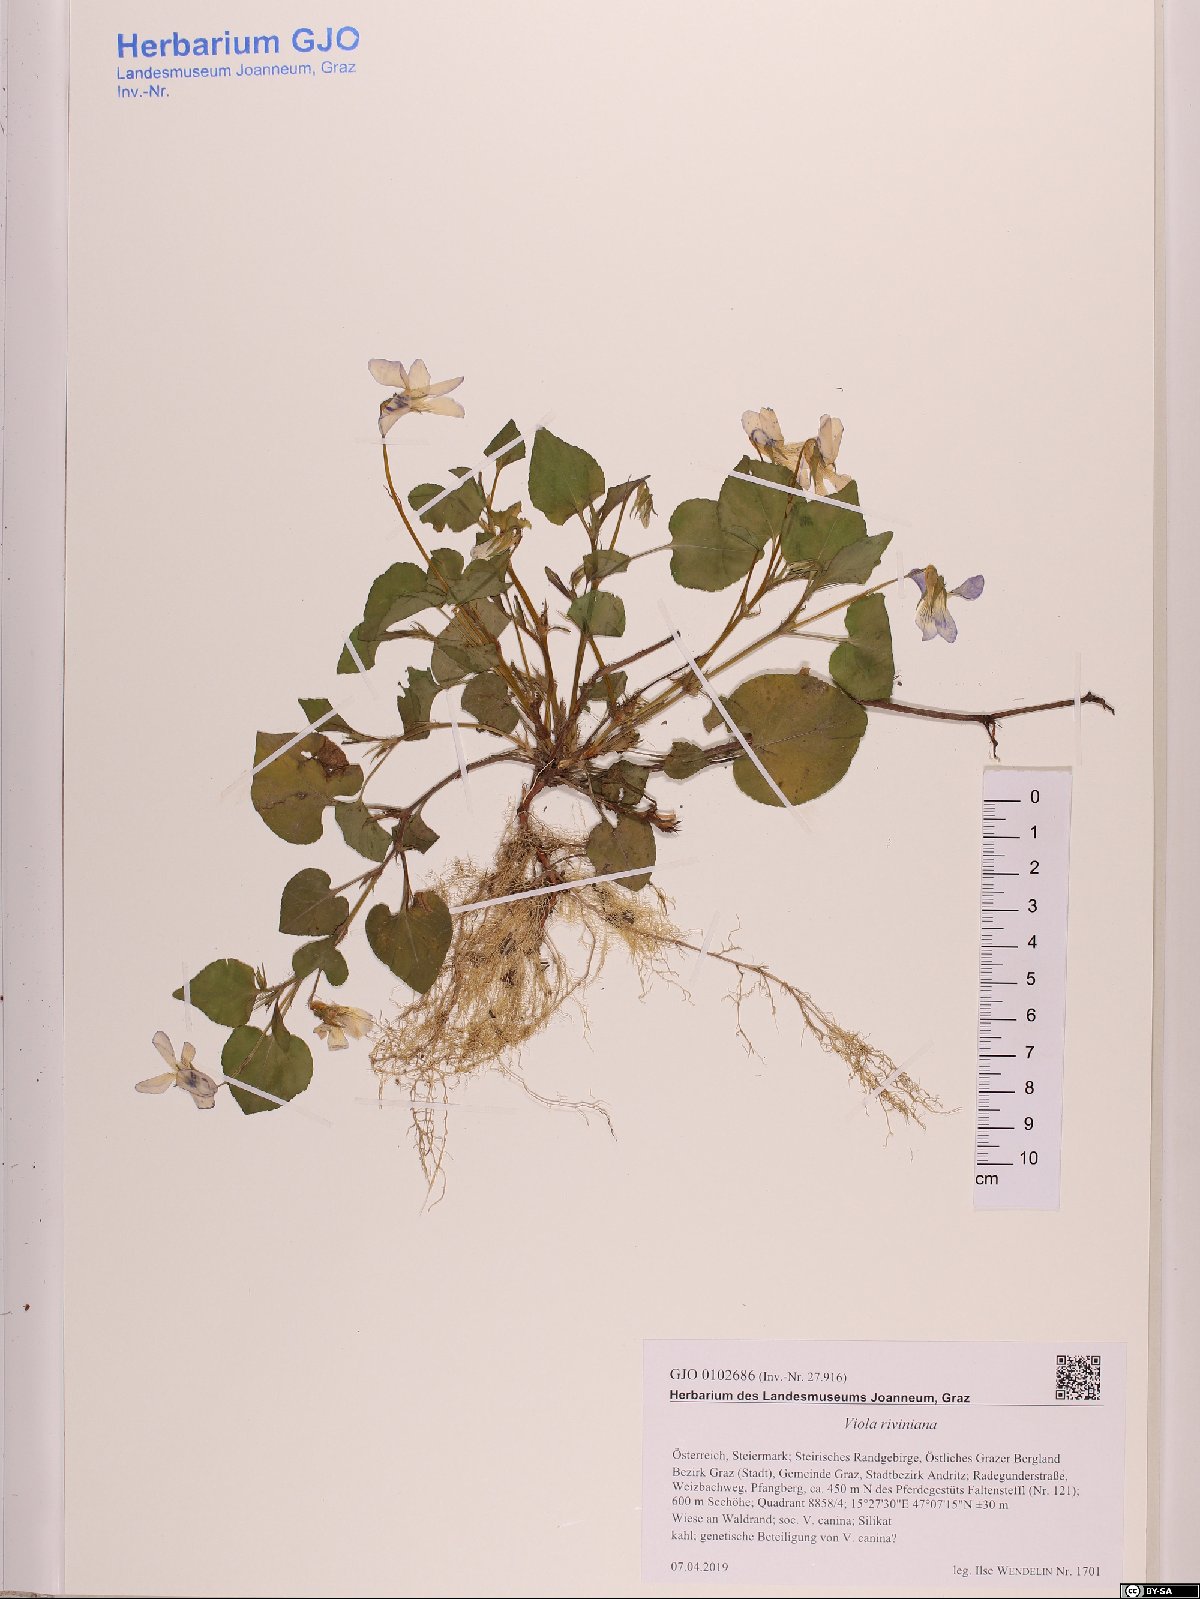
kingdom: Plantae
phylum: Tracheophyta
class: Magnoliopsida
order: Malpighiales
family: Violaceae
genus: Viola
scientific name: Viola riviniana
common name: Common dog-violet
